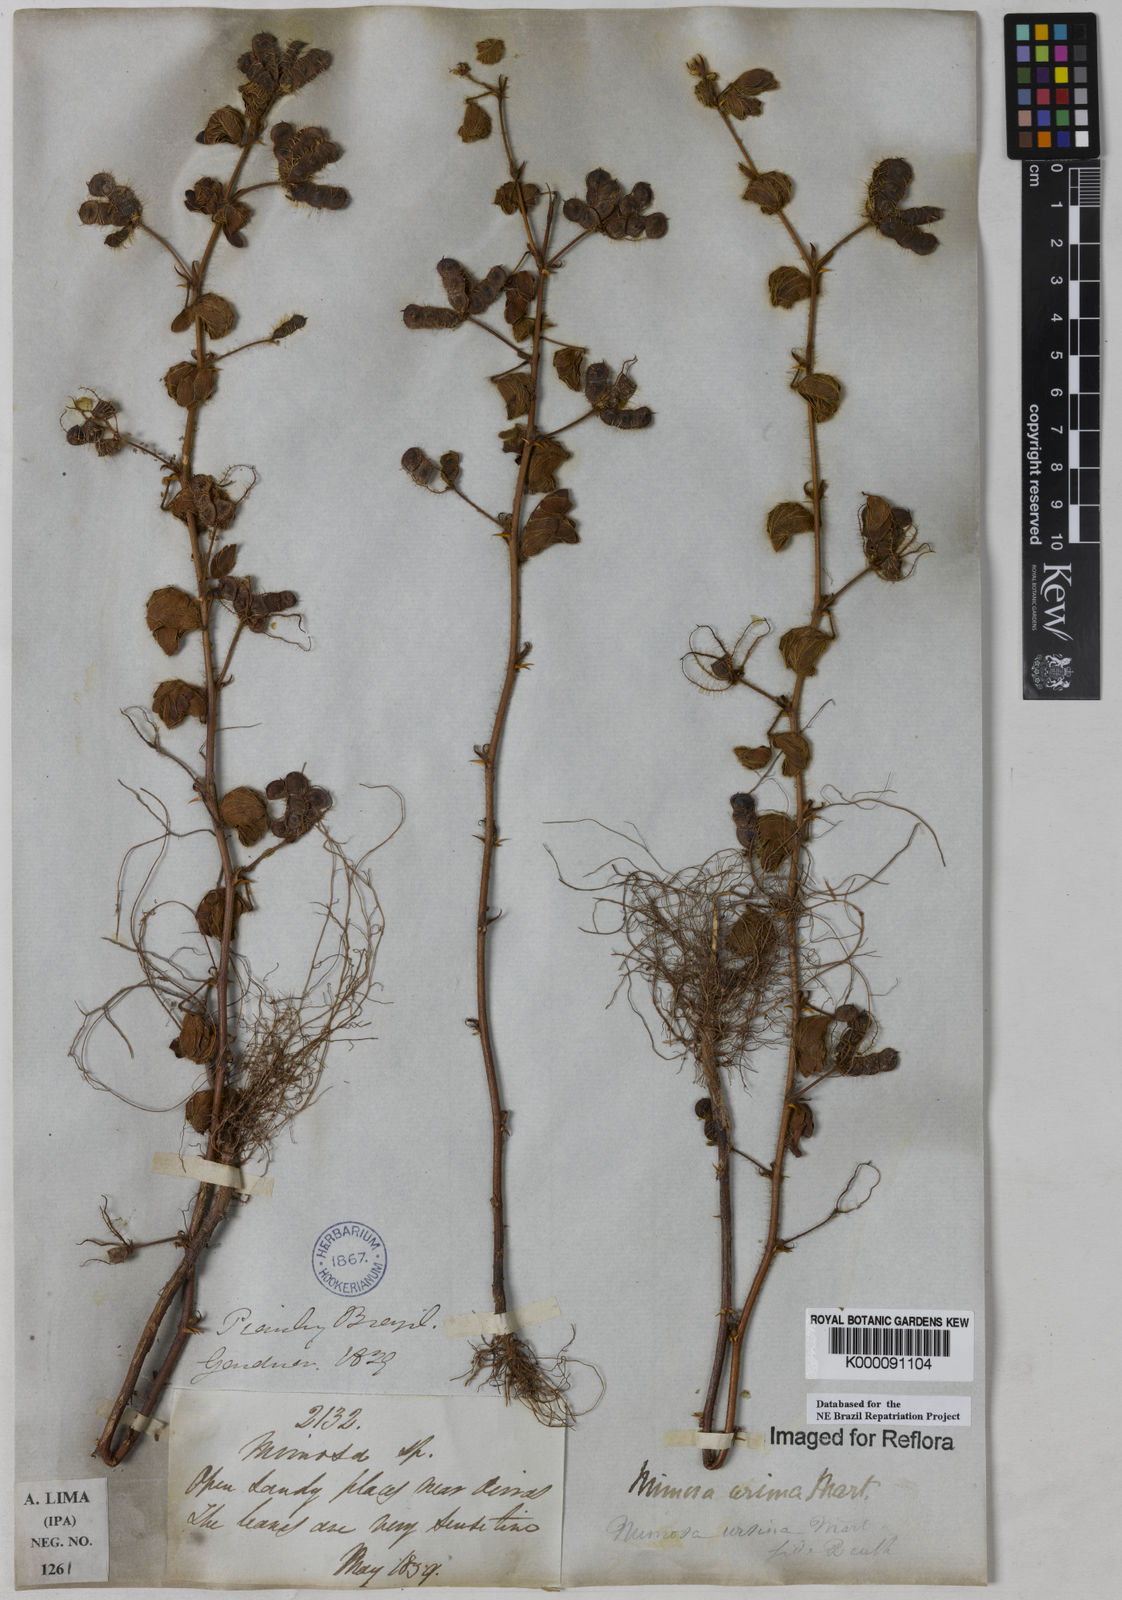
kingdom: Plantae
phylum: Tracheophyta
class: Magnoliopsida
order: Fabales
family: Fabaceae
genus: Mimosa
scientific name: Mimosa ursina
